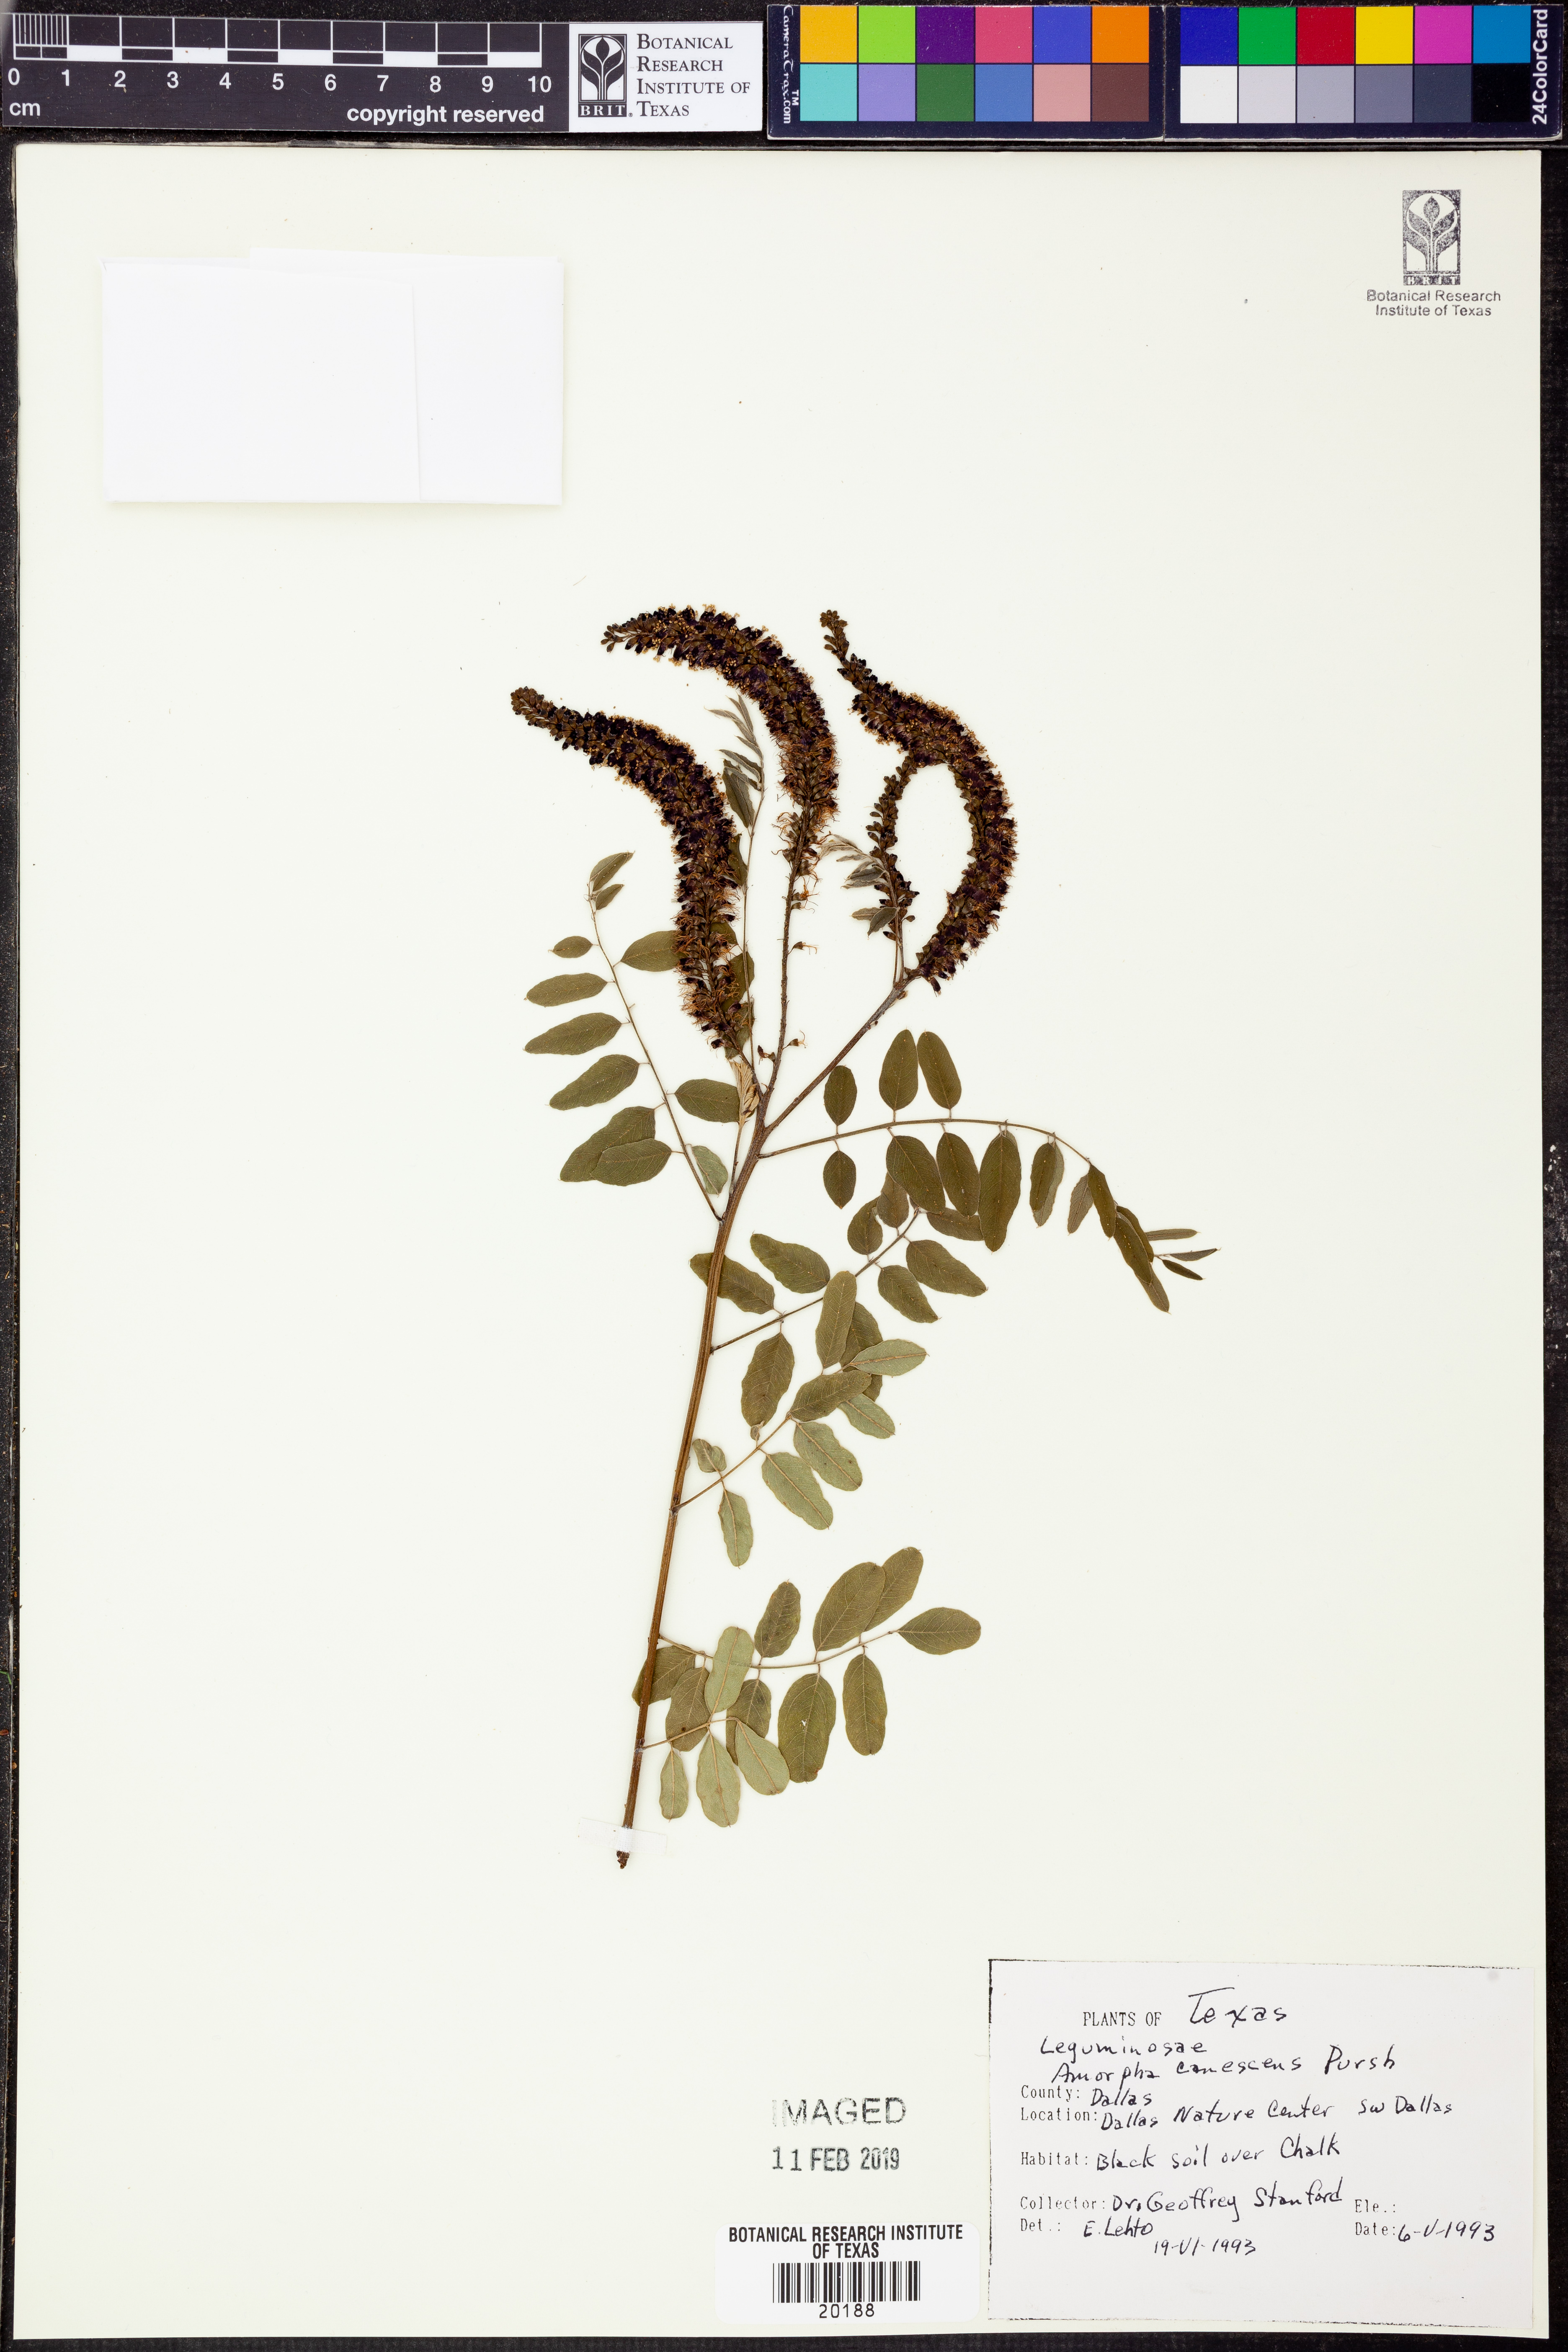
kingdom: Plantae
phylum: Tracheophyta
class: Magnoliopsida
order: Fabales
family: Fabaceae
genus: Amorpha
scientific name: Amorpha canescens
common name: Leadplant
